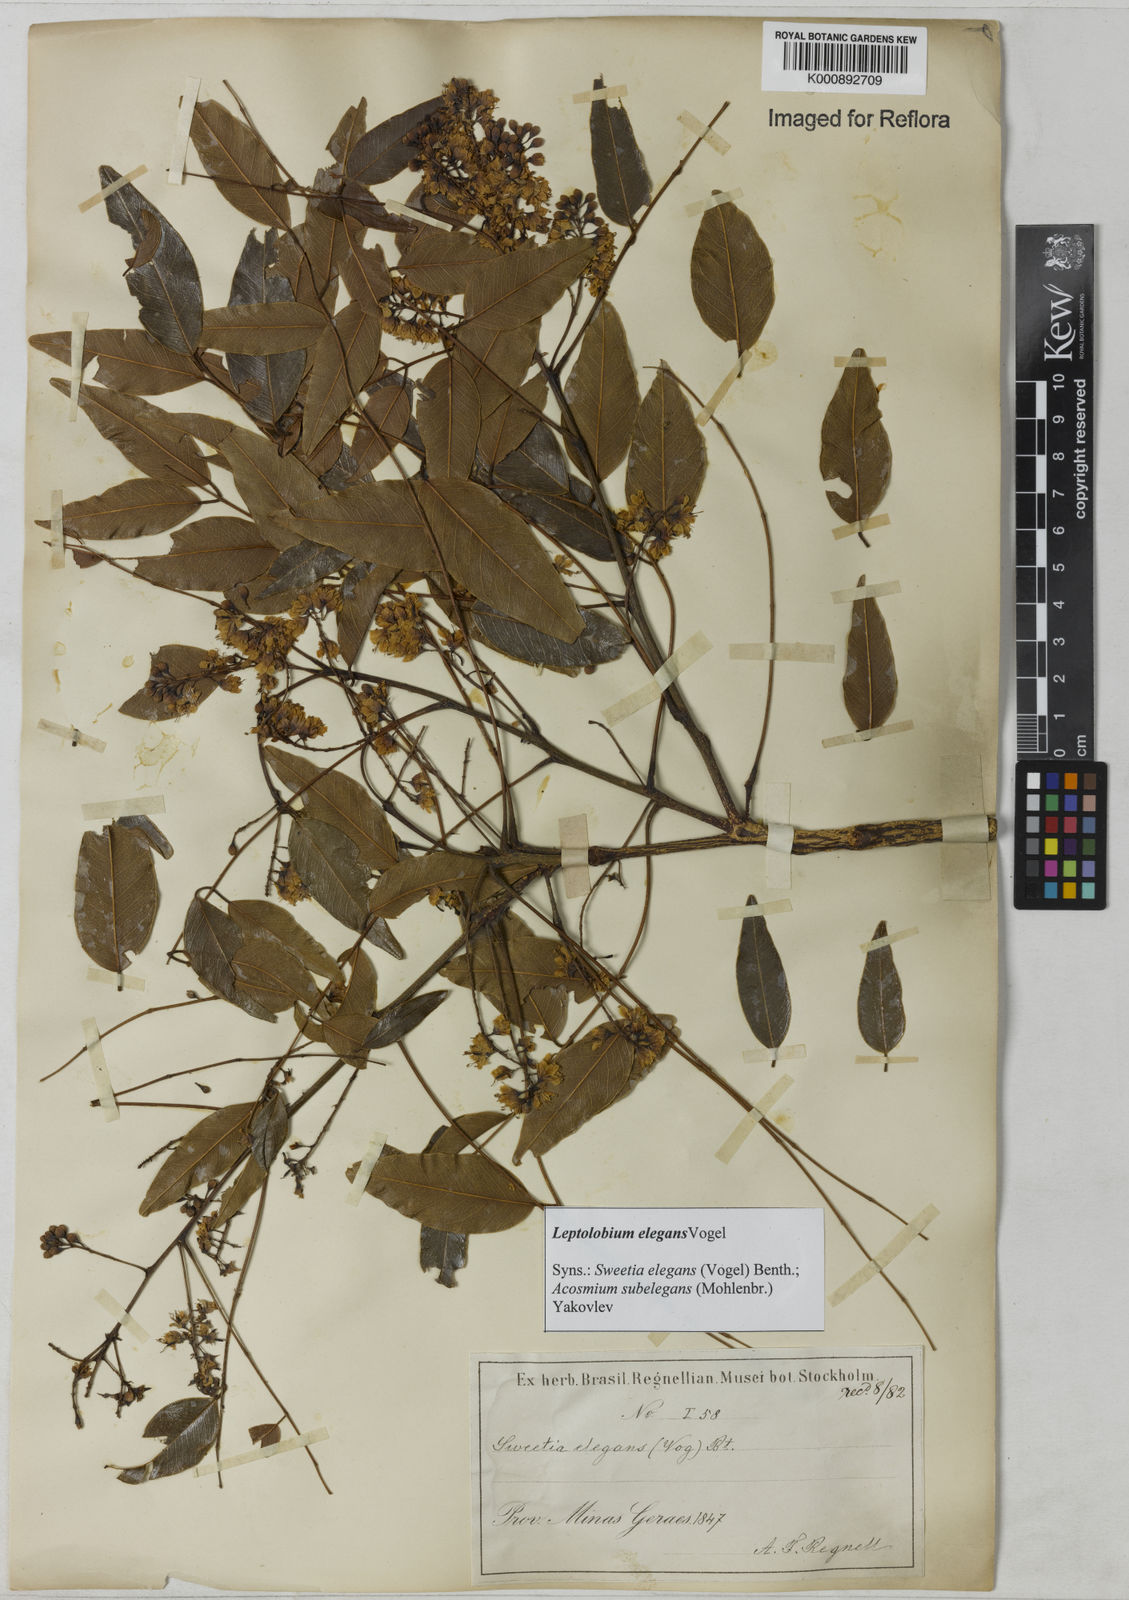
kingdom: Plantae
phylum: Tracheophyta
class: Magnoliopsida
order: Fabales
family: Fabaceae
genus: Leptolobium
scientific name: Leptolobium elegans
